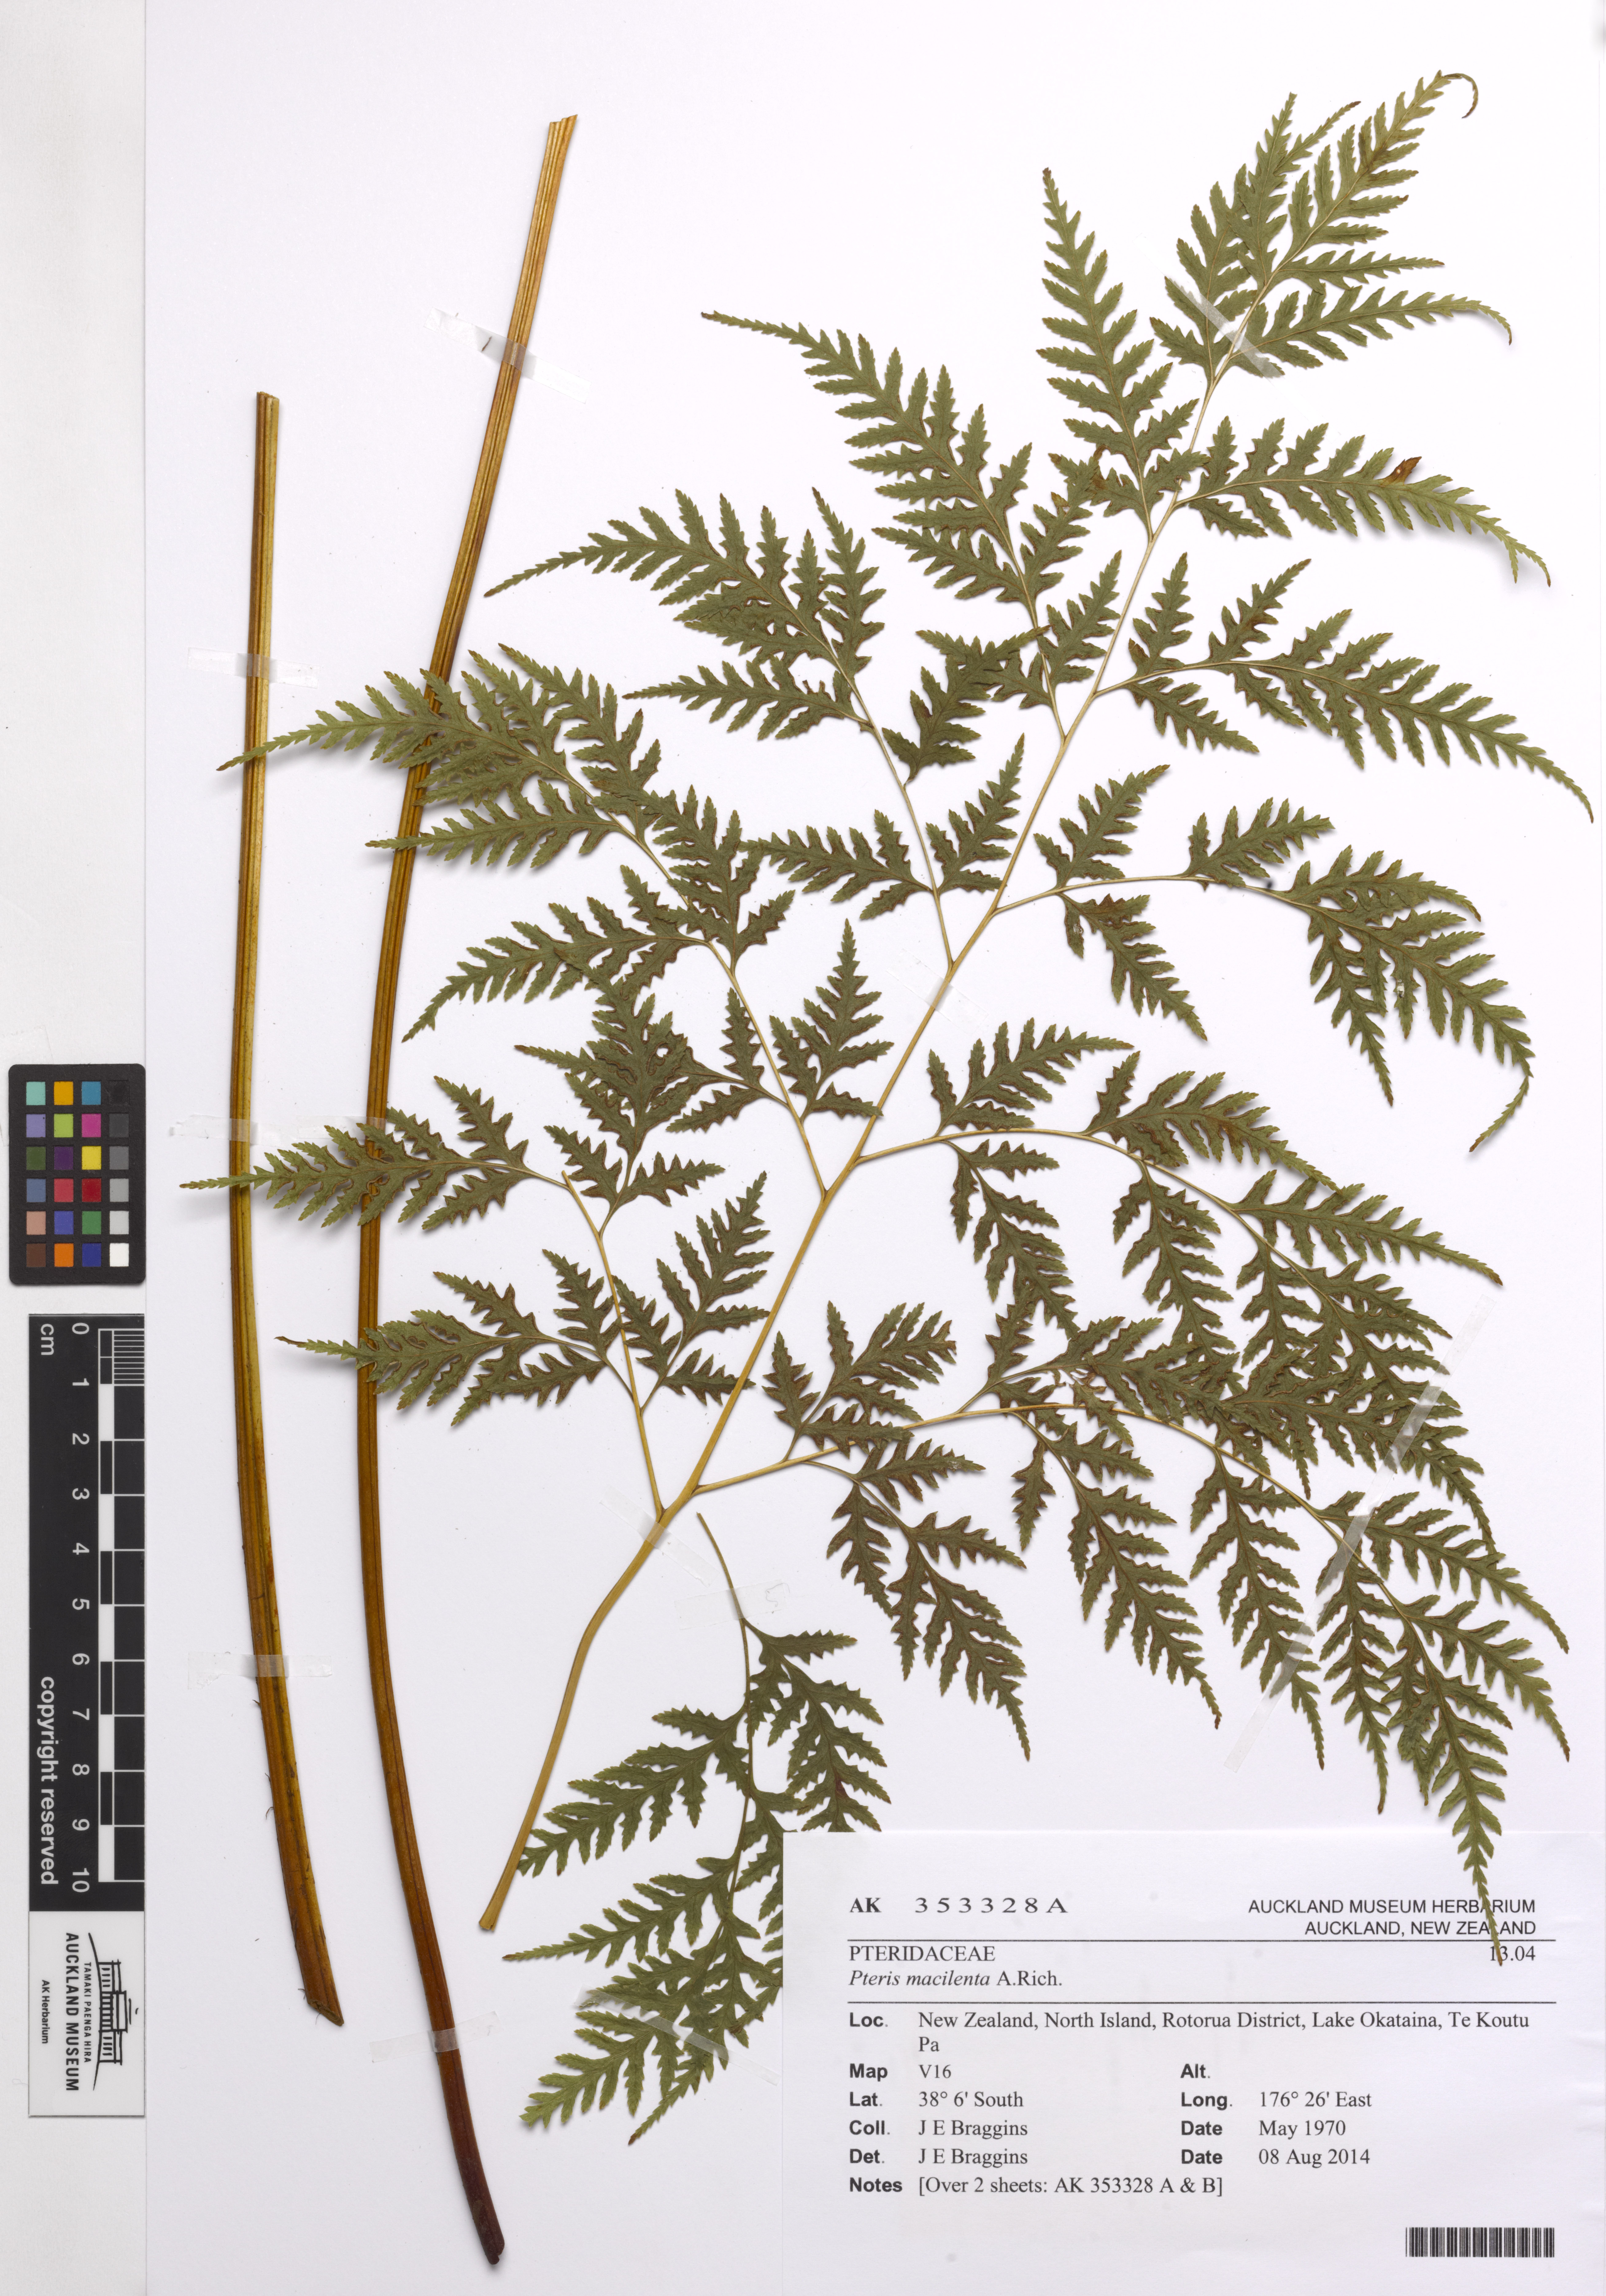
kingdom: Plantae
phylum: Tracheophyta
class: Polypodiopsida
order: Polypodiales
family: Pteridaceae
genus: Pteris
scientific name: Pteris macilenta
